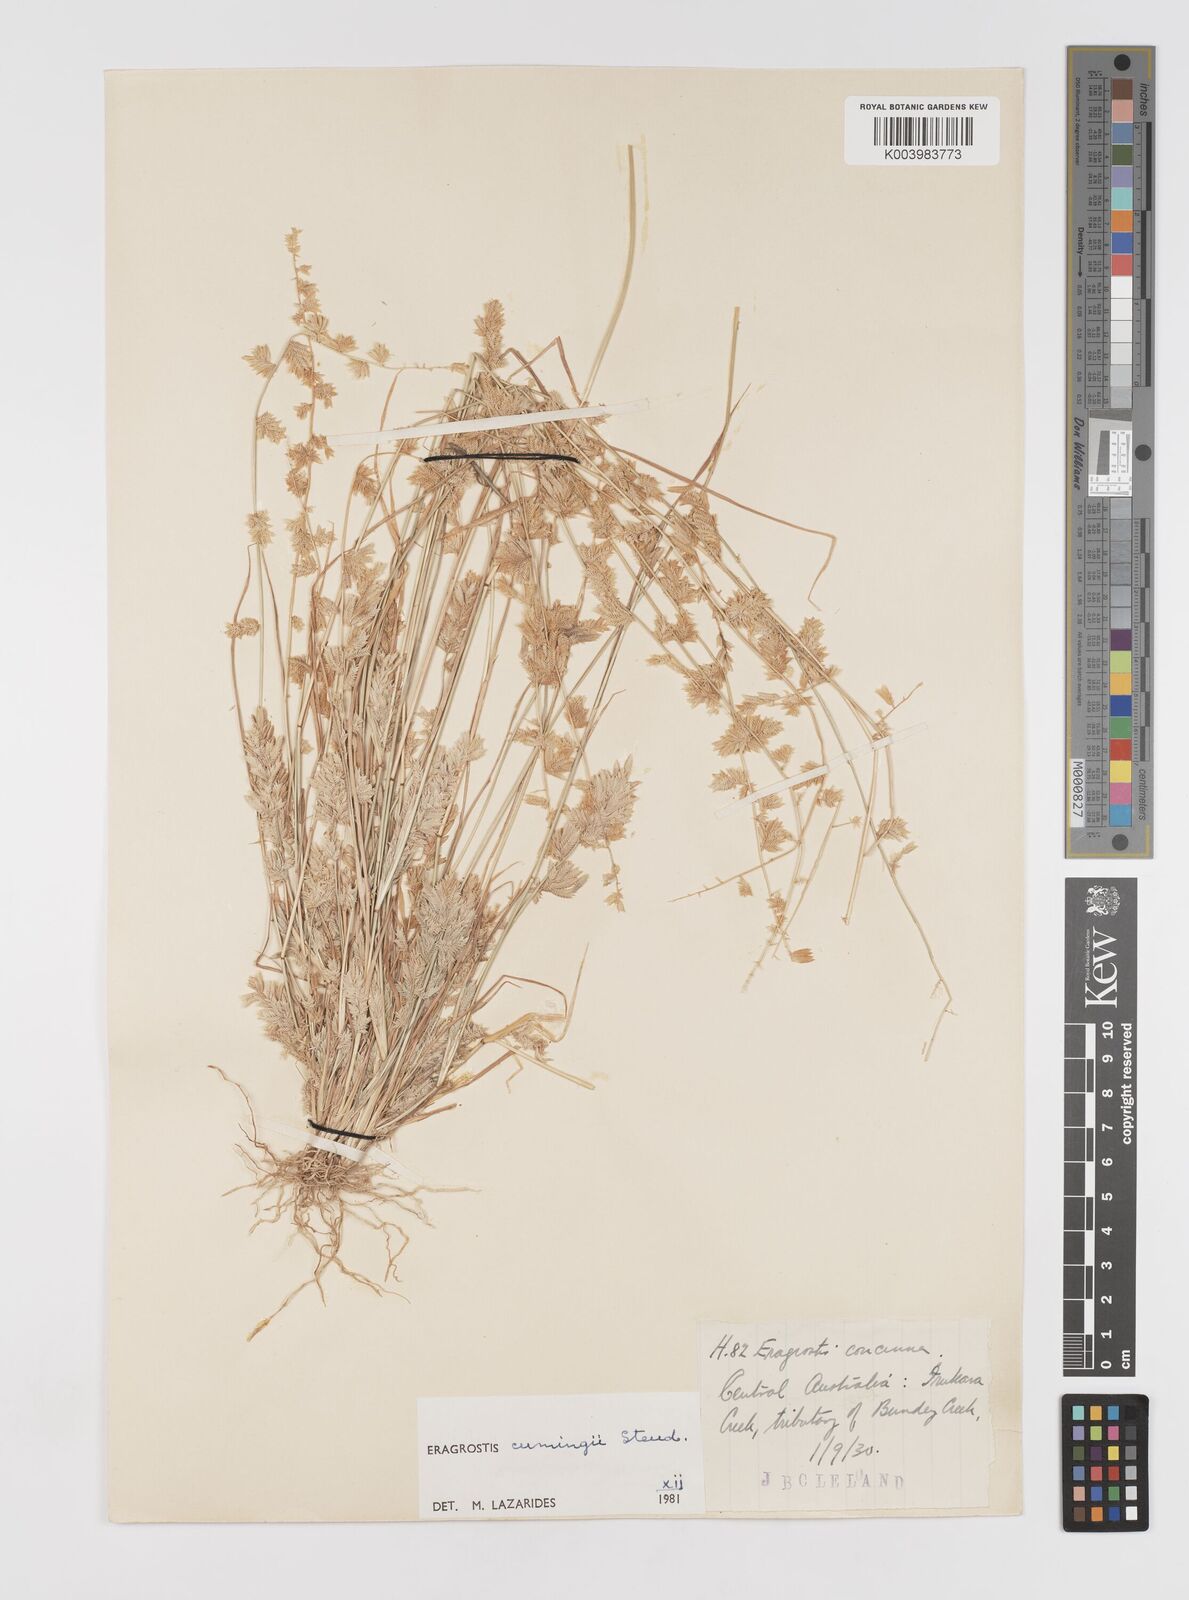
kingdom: Plantae
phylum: Tracheophyta
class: Liliopsida
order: Poales
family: Poaceae
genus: Eragrostis
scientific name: Eragrostis cumingii
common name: Cuming's lovegrass
